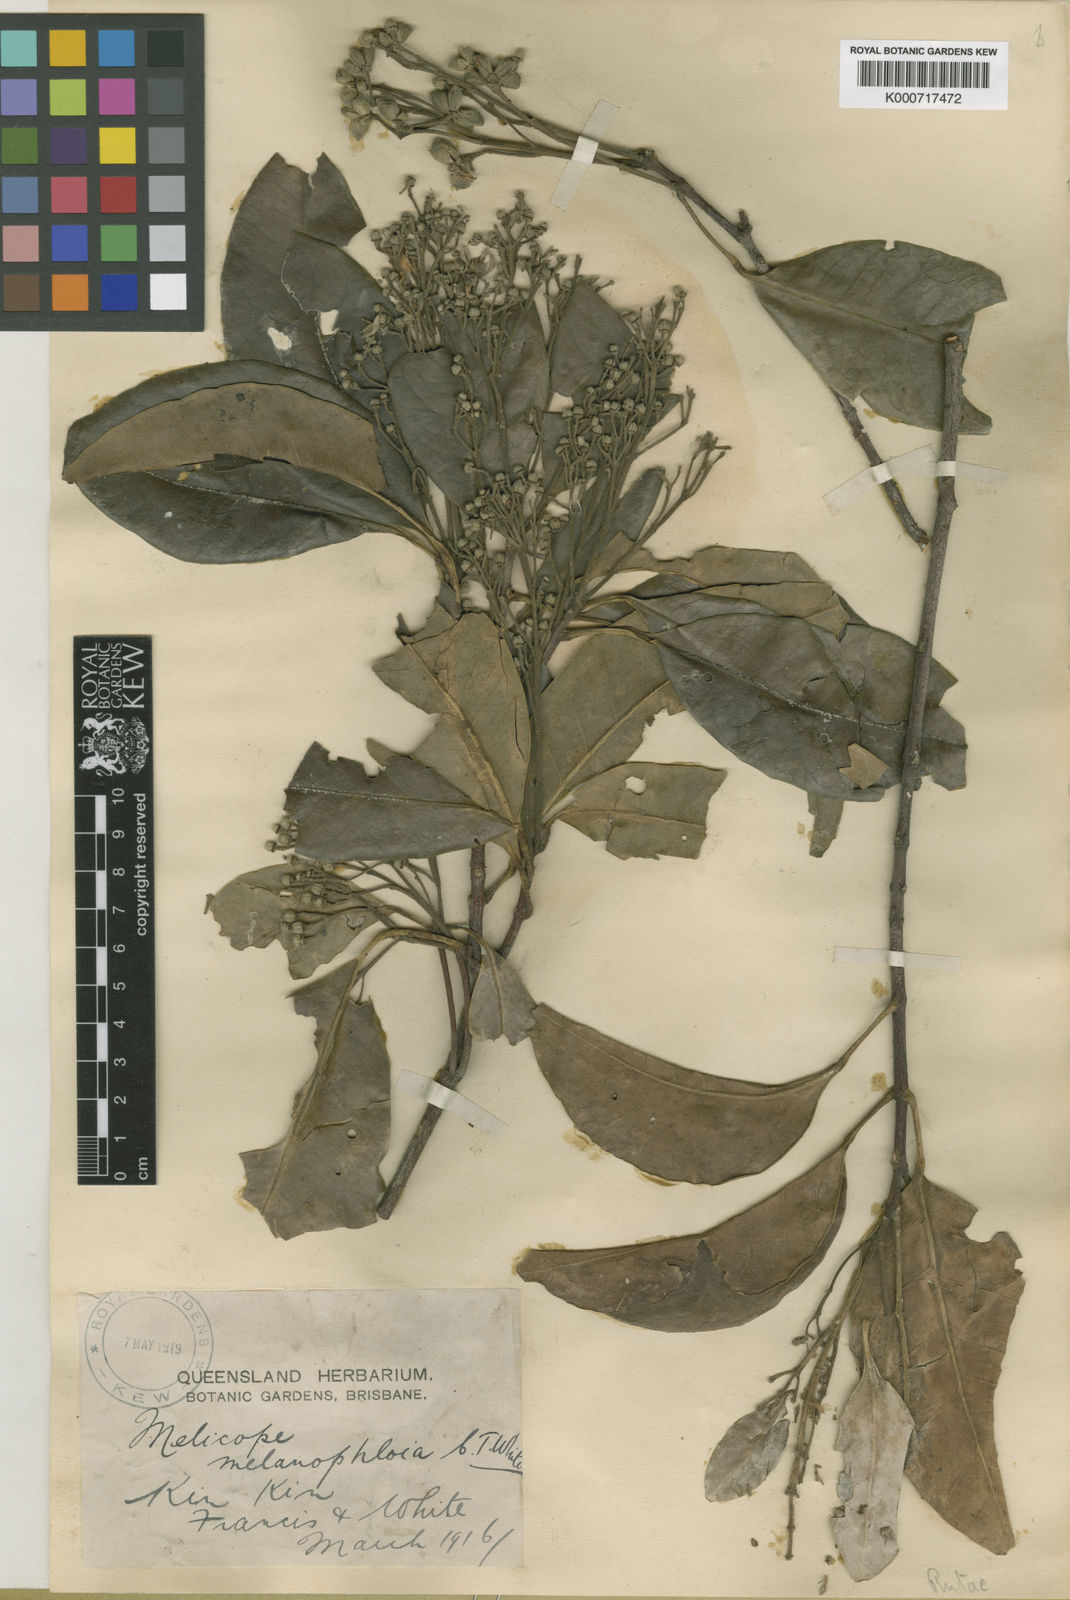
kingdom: Plantae
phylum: Tracheophyta
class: Magnoliopsida
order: Sapindales
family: Rutaceae
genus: Dinosperma
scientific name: Dinosperma melanophloia
